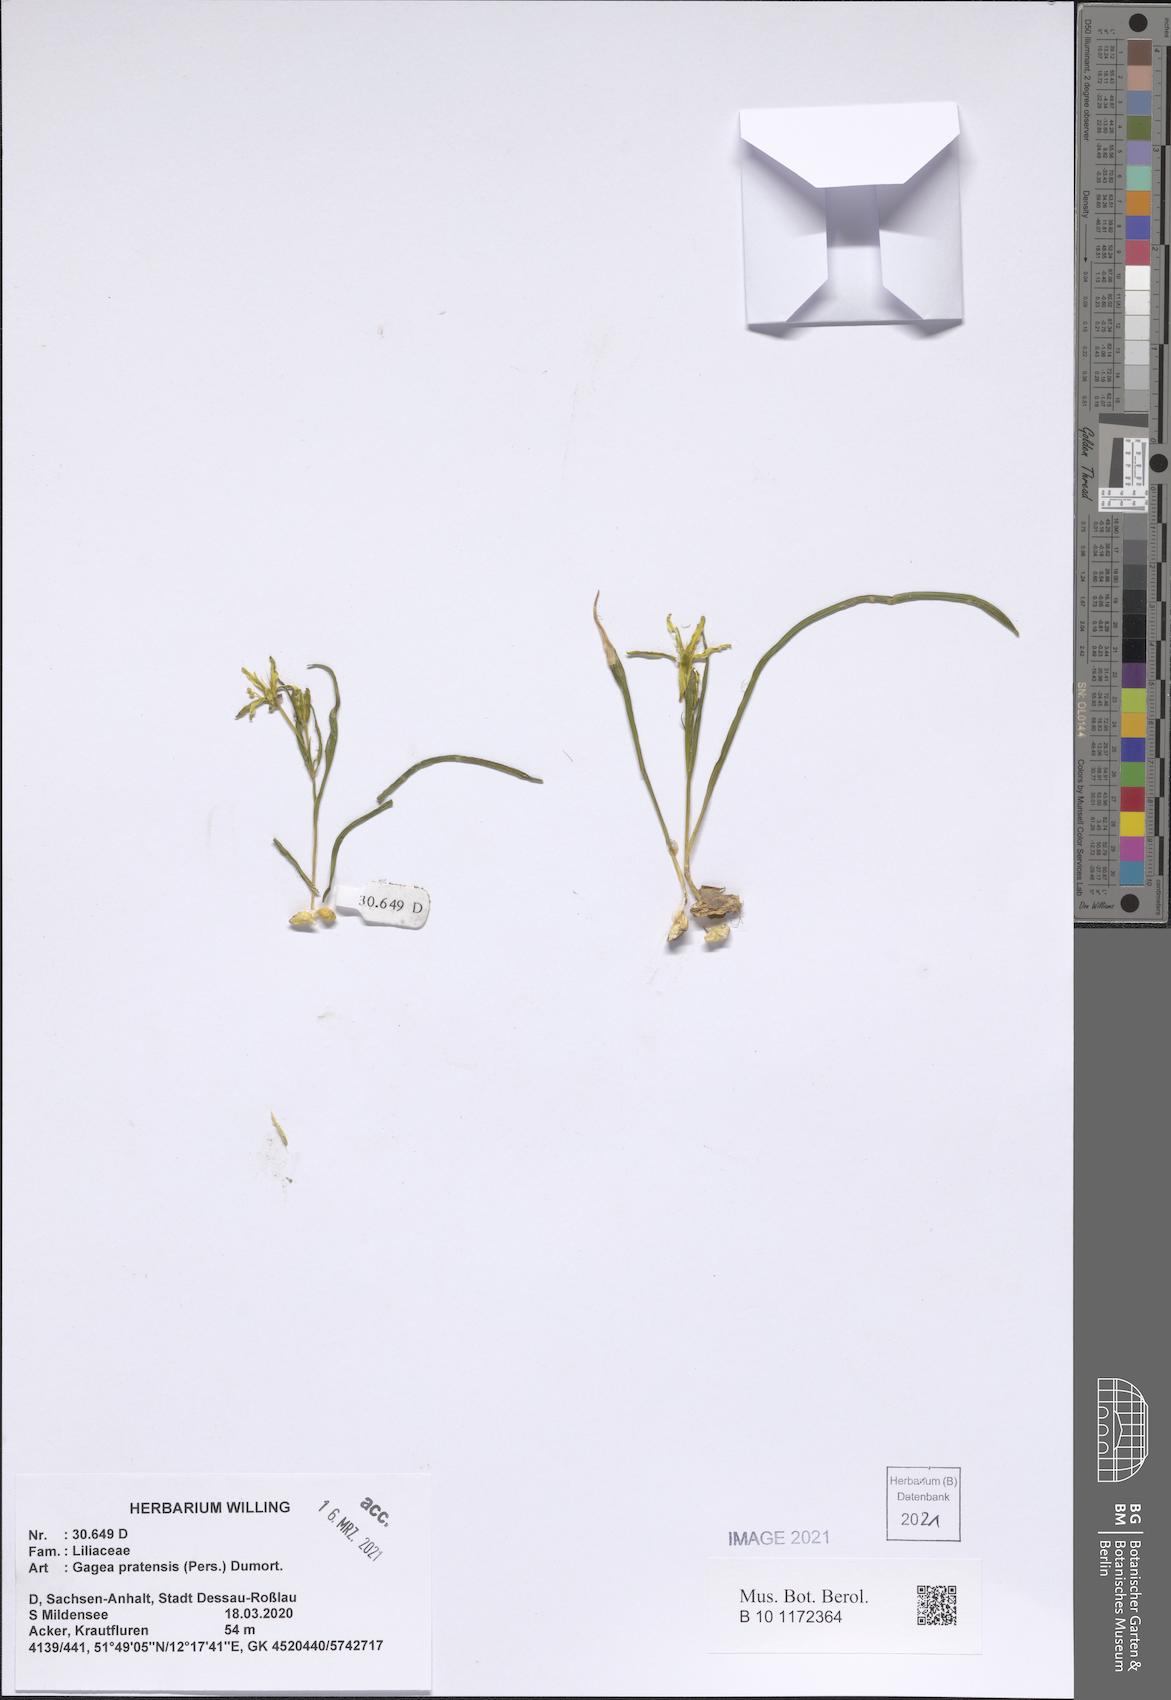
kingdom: Plantae
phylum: Tracheophyta
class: Liliopsida
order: Liliales
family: Liliaceae
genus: Gagea
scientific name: Gagea pratensis
